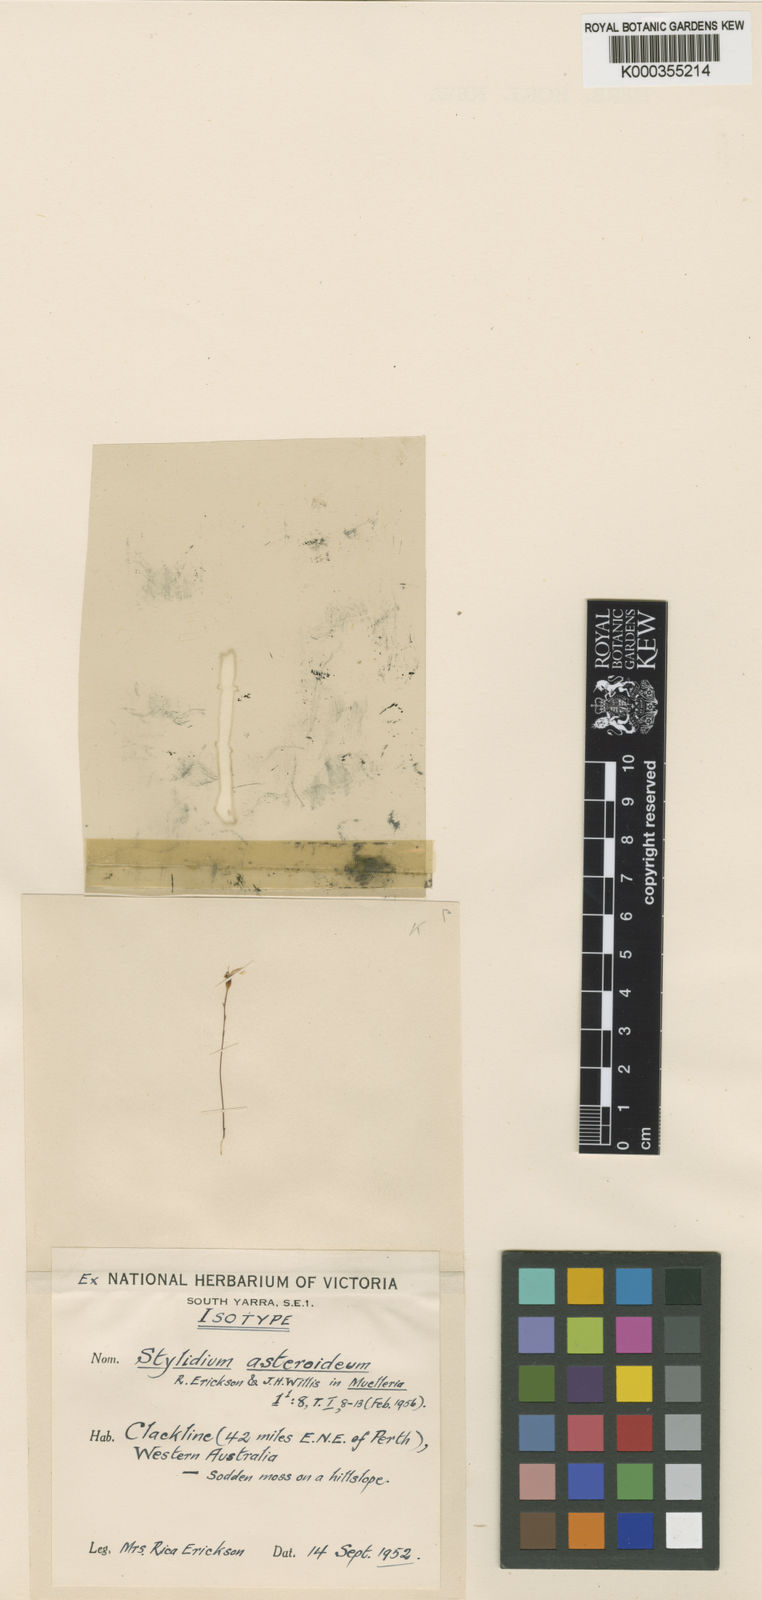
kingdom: Plantae
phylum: Tracheophyta
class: Magnoliopsida
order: Asterales
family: Stylidiaceae
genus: Stylidium
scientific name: Stylidium obtusatum
